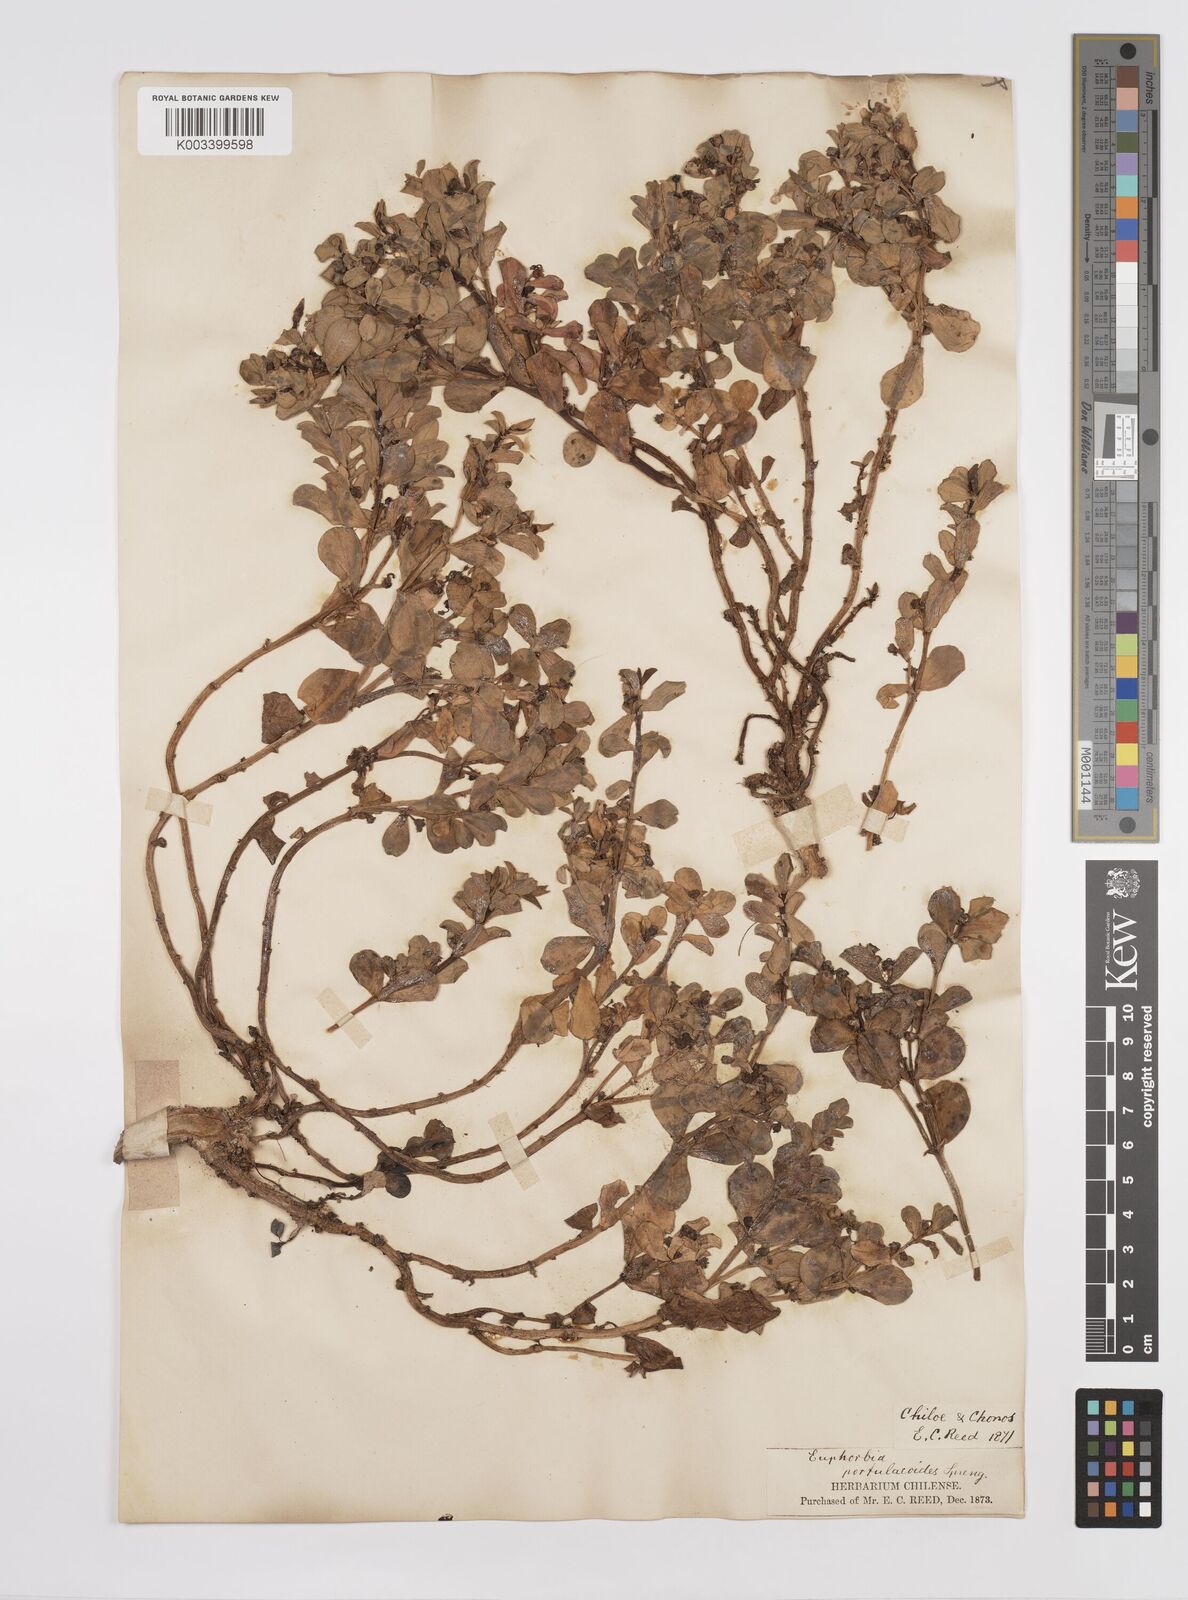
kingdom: Plantae
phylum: Tracheophyta
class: Magnoliopsida
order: Malpighiales
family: Euphorbiaceae
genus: Euphorbia
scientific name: Euphorbia portulacoides
